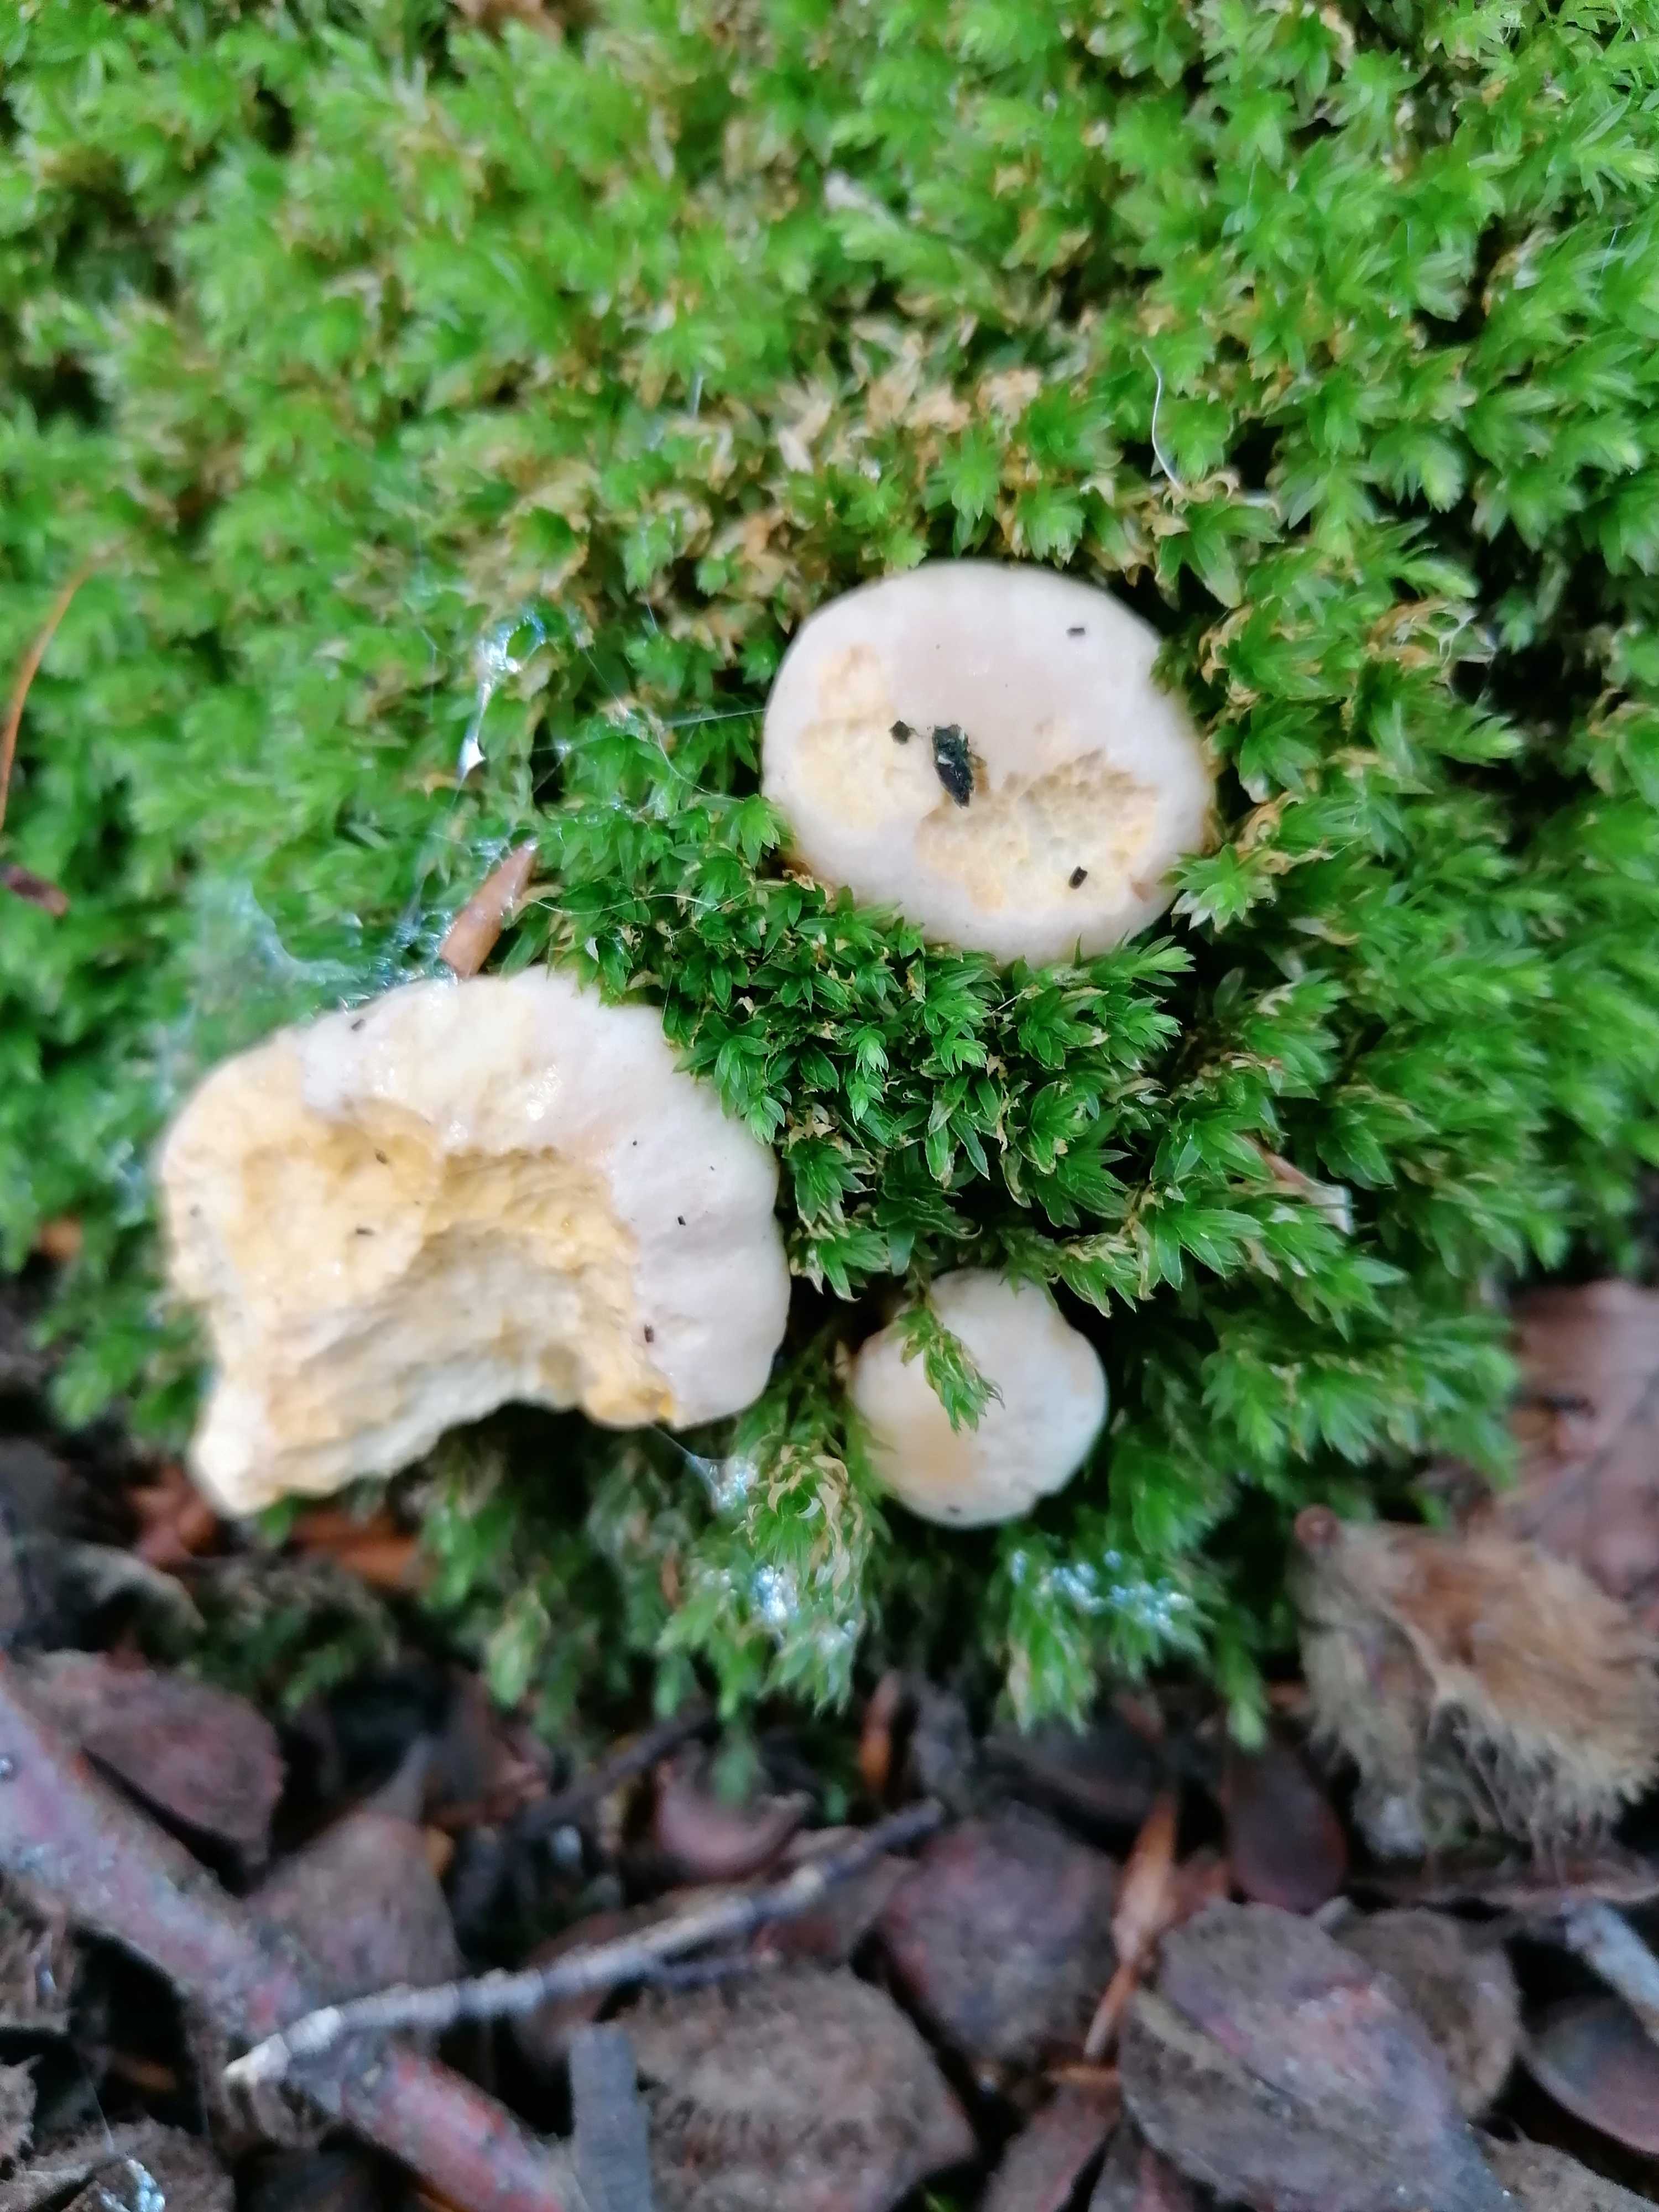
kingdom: Fungi
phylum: Basidiomycota
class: Agaricomycetes
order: Cantharellales
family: Hydnaceae
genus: Cantharellus
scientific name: Cantharellus pallens
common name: bleg kantarel
